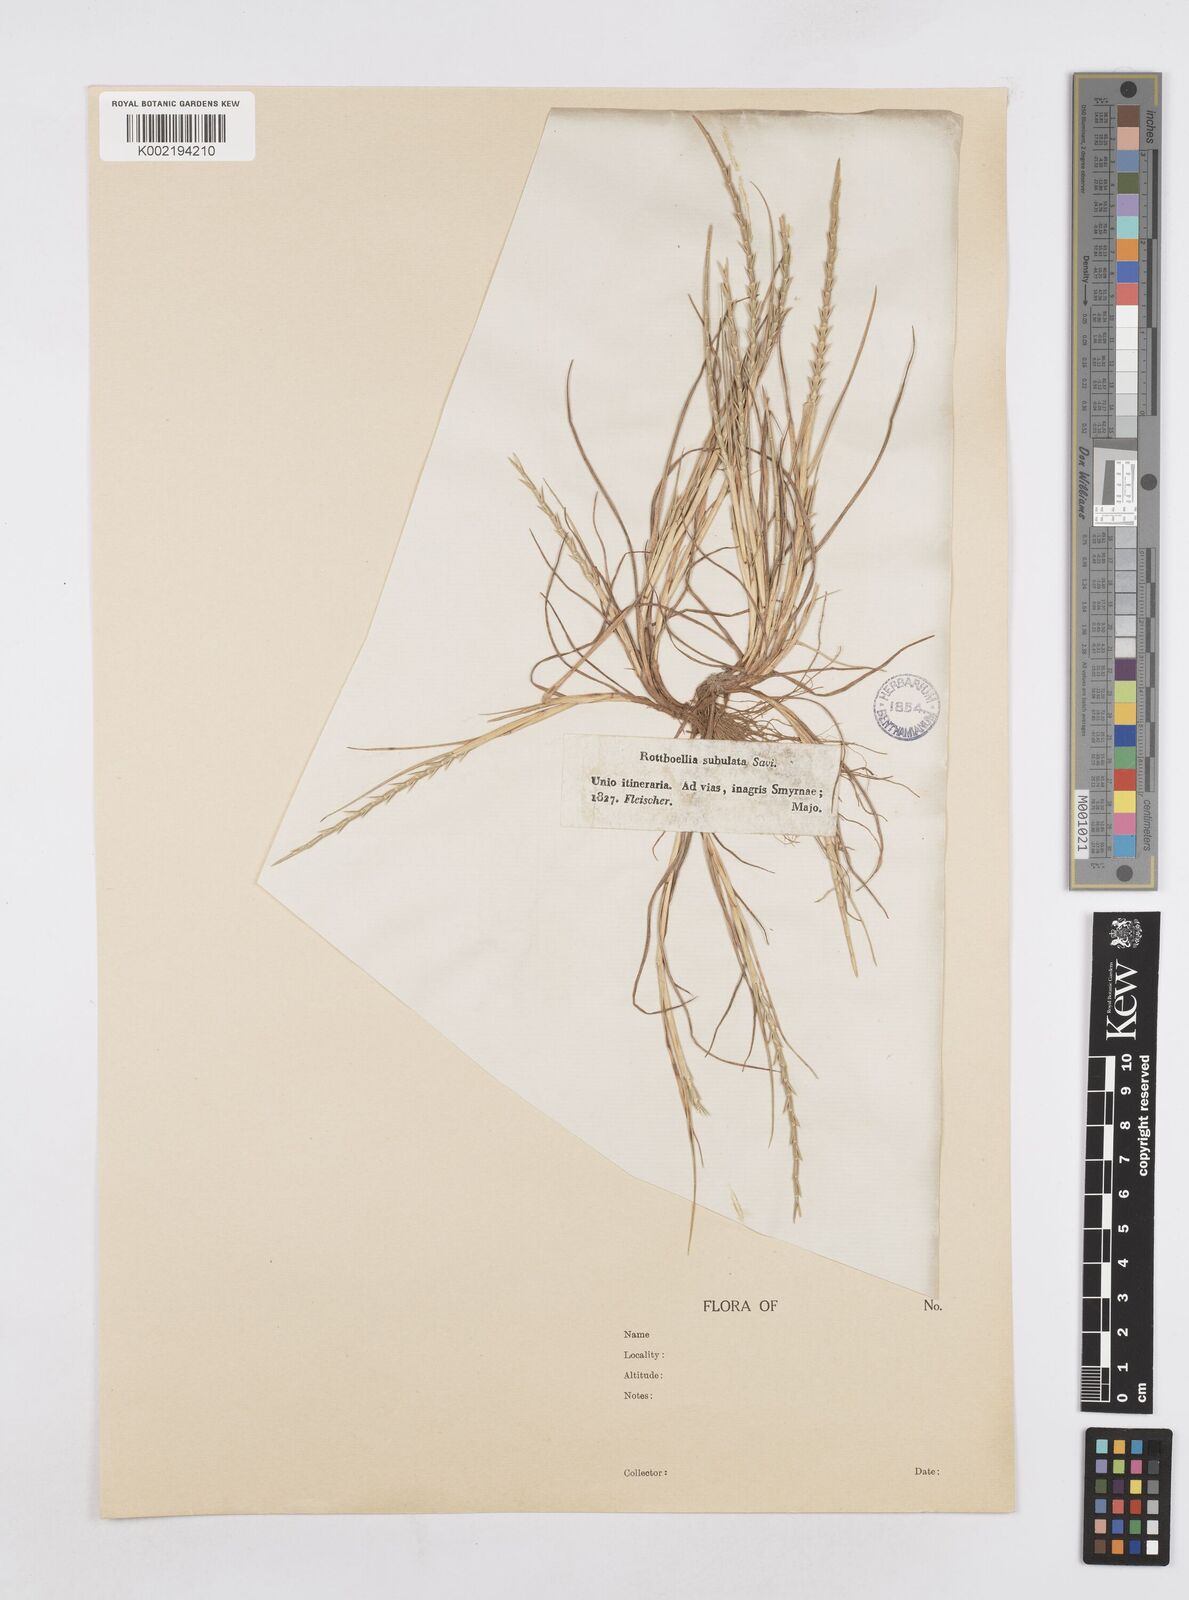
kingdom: Plantae
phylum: Tracheophyta
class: Liliopsida
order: Poales
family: Poaceae
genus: Parapholis
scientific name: Parapholis cylindrica
